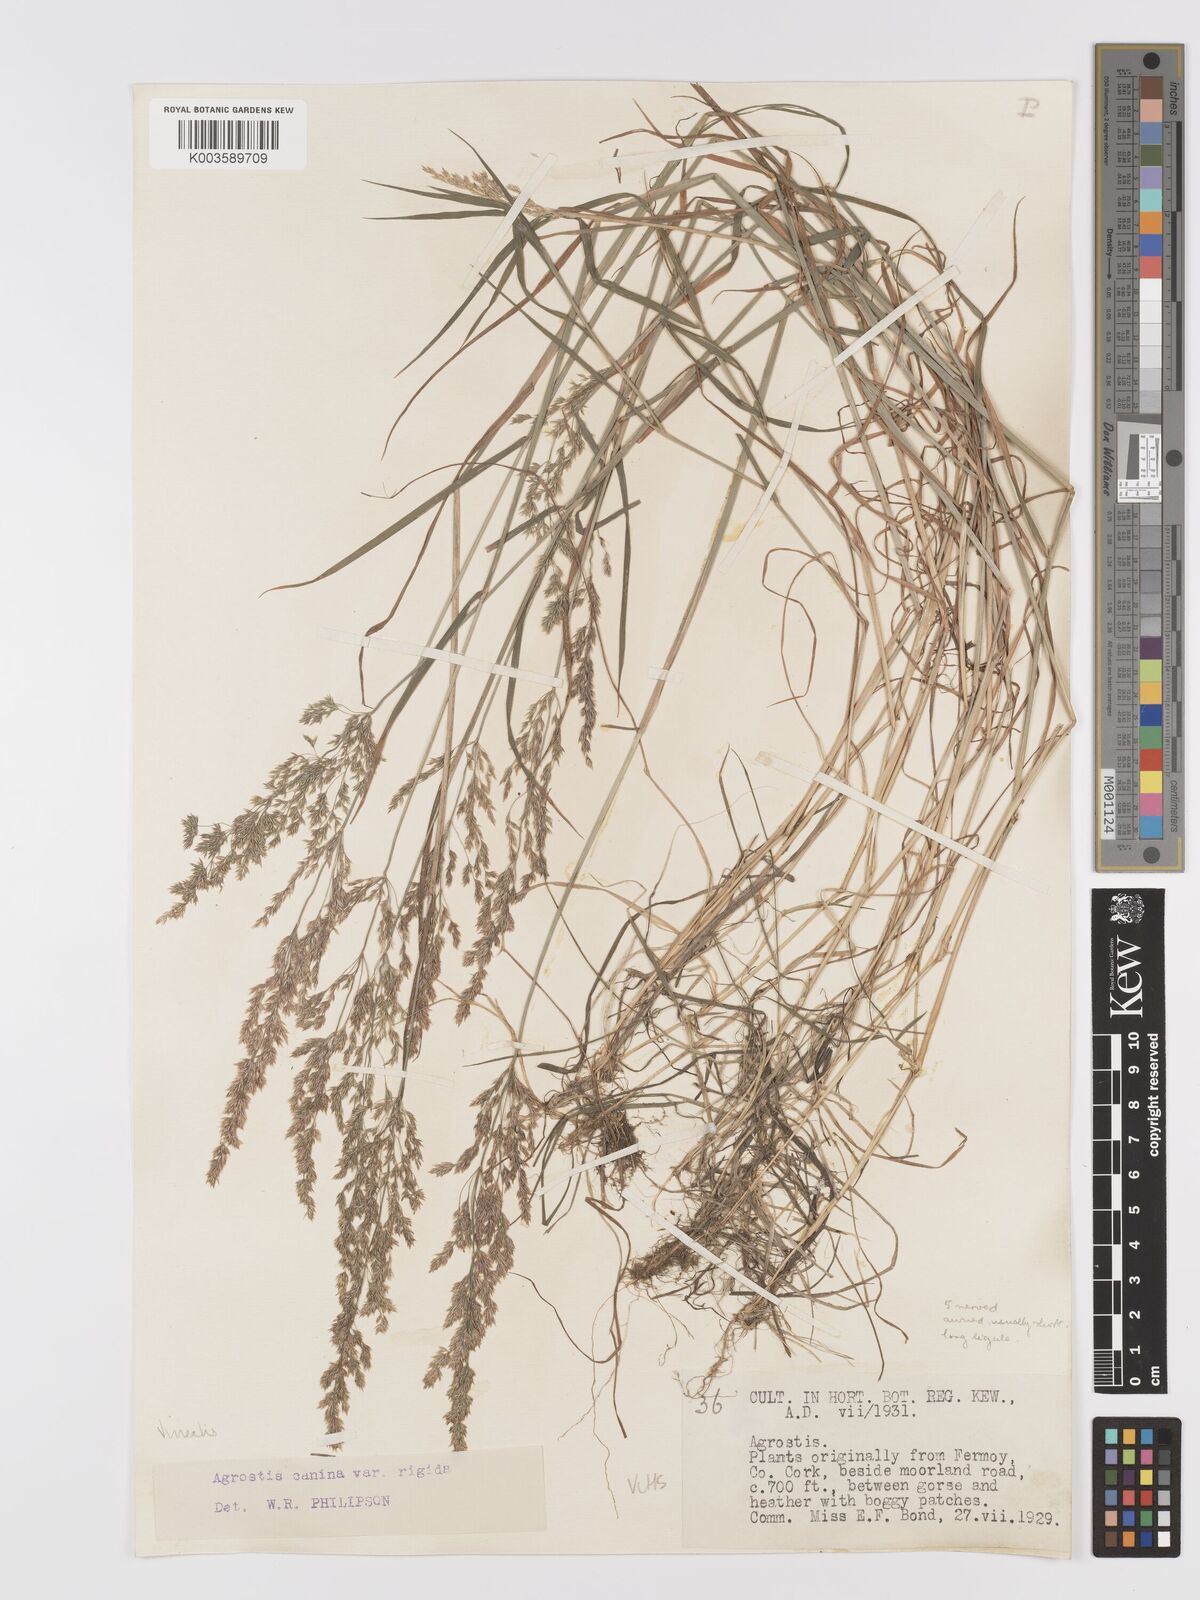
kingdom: Plantae
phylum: Tracheophyta
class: Liliopsida
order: Poales
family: Poaceae
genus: Agrostis
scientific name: Agrostis
